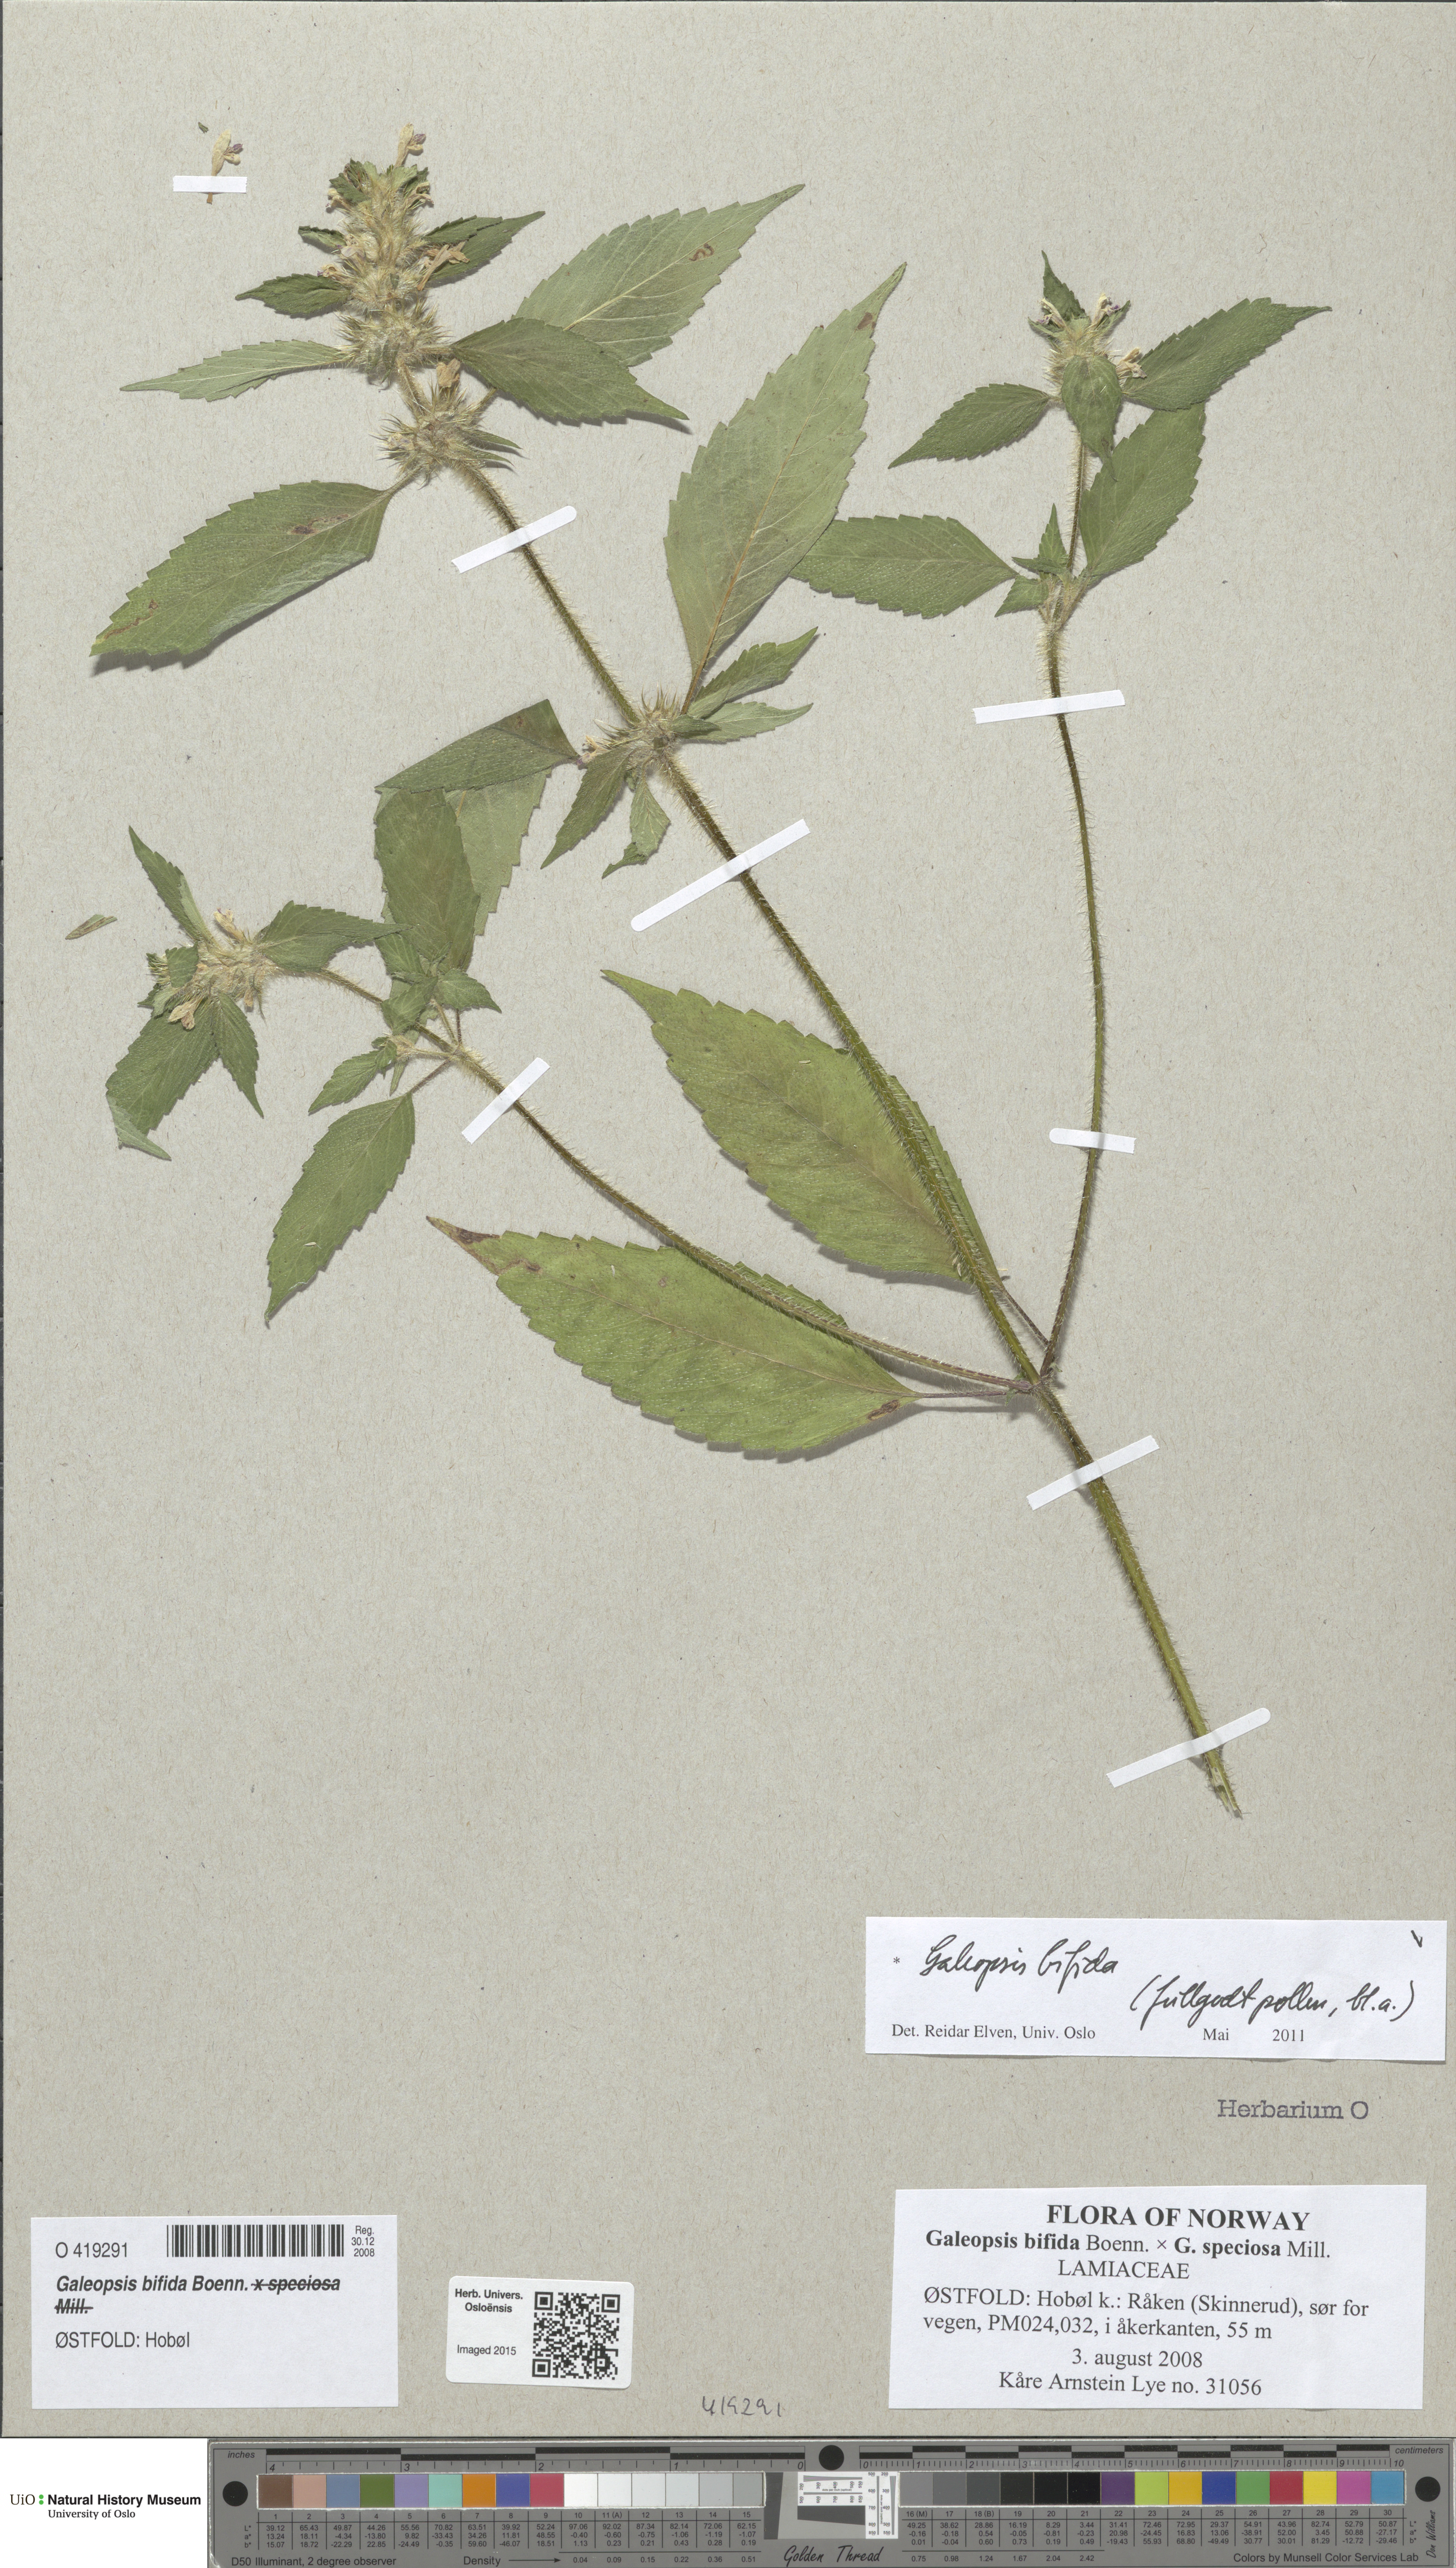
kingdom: Plantae
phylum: Tracheophyta
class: Magnoliopsida
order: Lamiales
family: Lamiaceae
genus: Galeopsis
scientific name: Galeopsis bifida
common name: Bifid hemp-nettle
